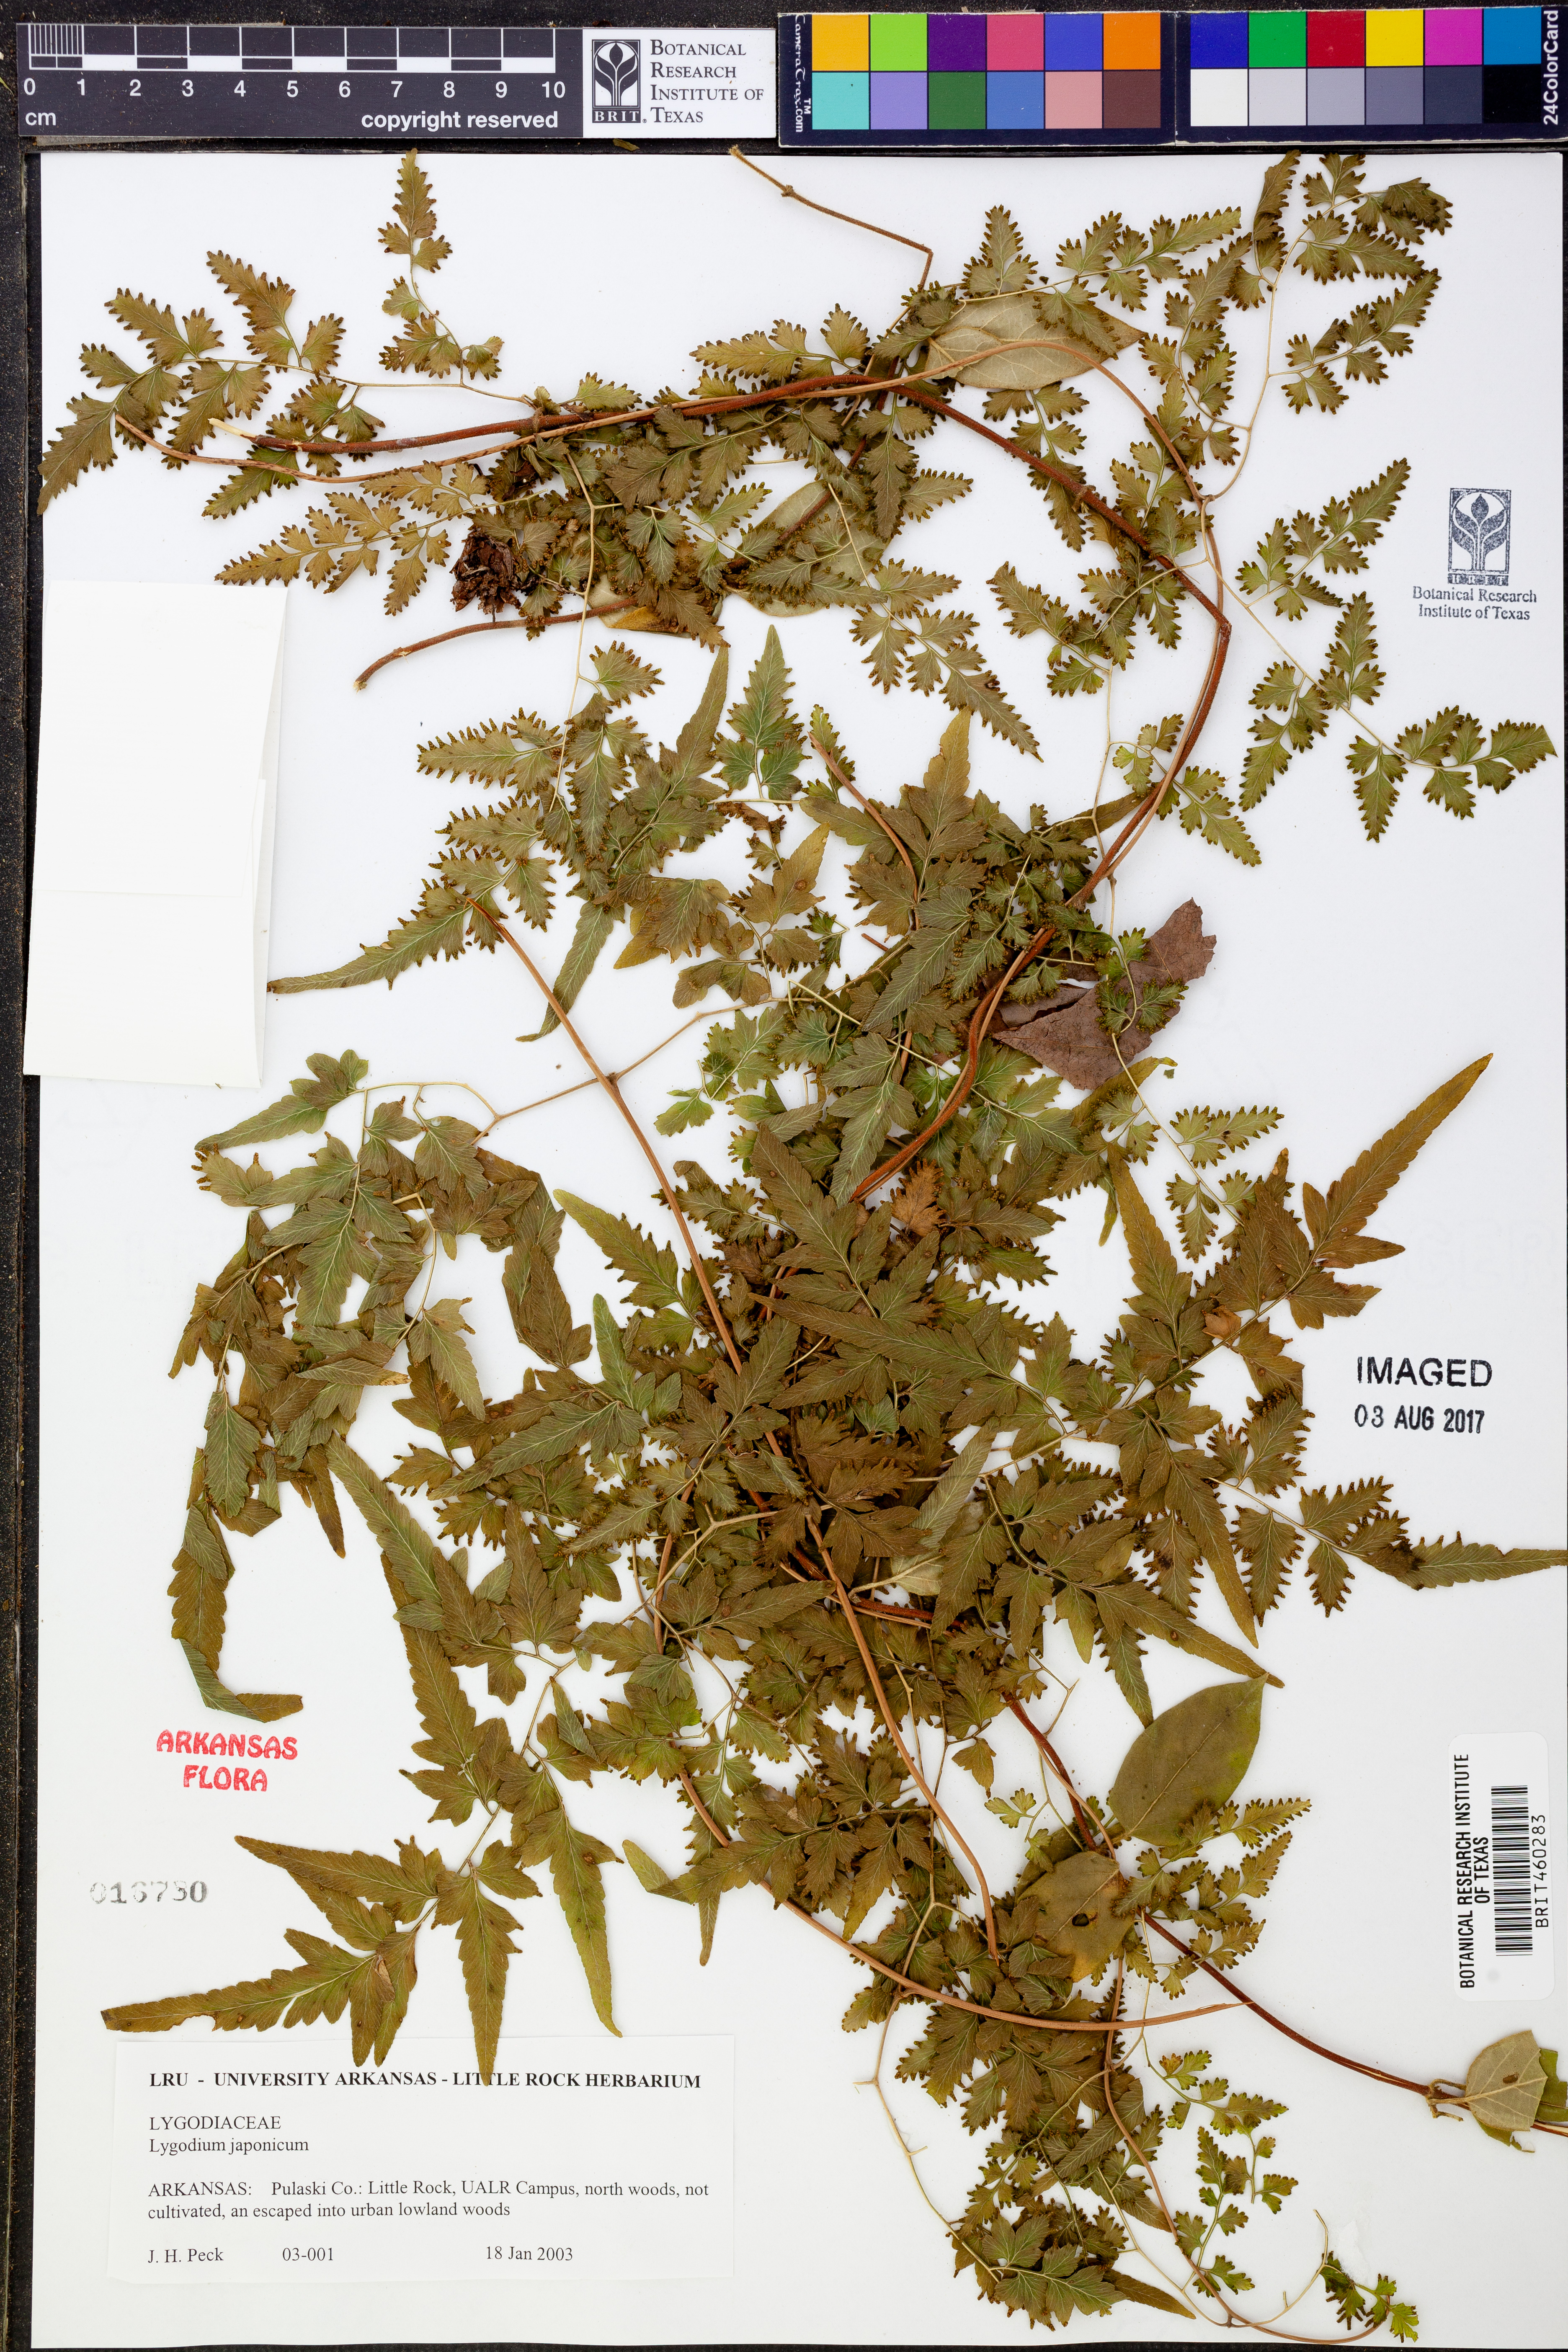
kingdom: Plantae
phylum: Tracheophyta
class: Polypodiopsida
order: Schizaeales
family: Lygodiaceae
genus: Lygodium
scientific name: Lygodium japonicum
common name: Japanese climbing fern
